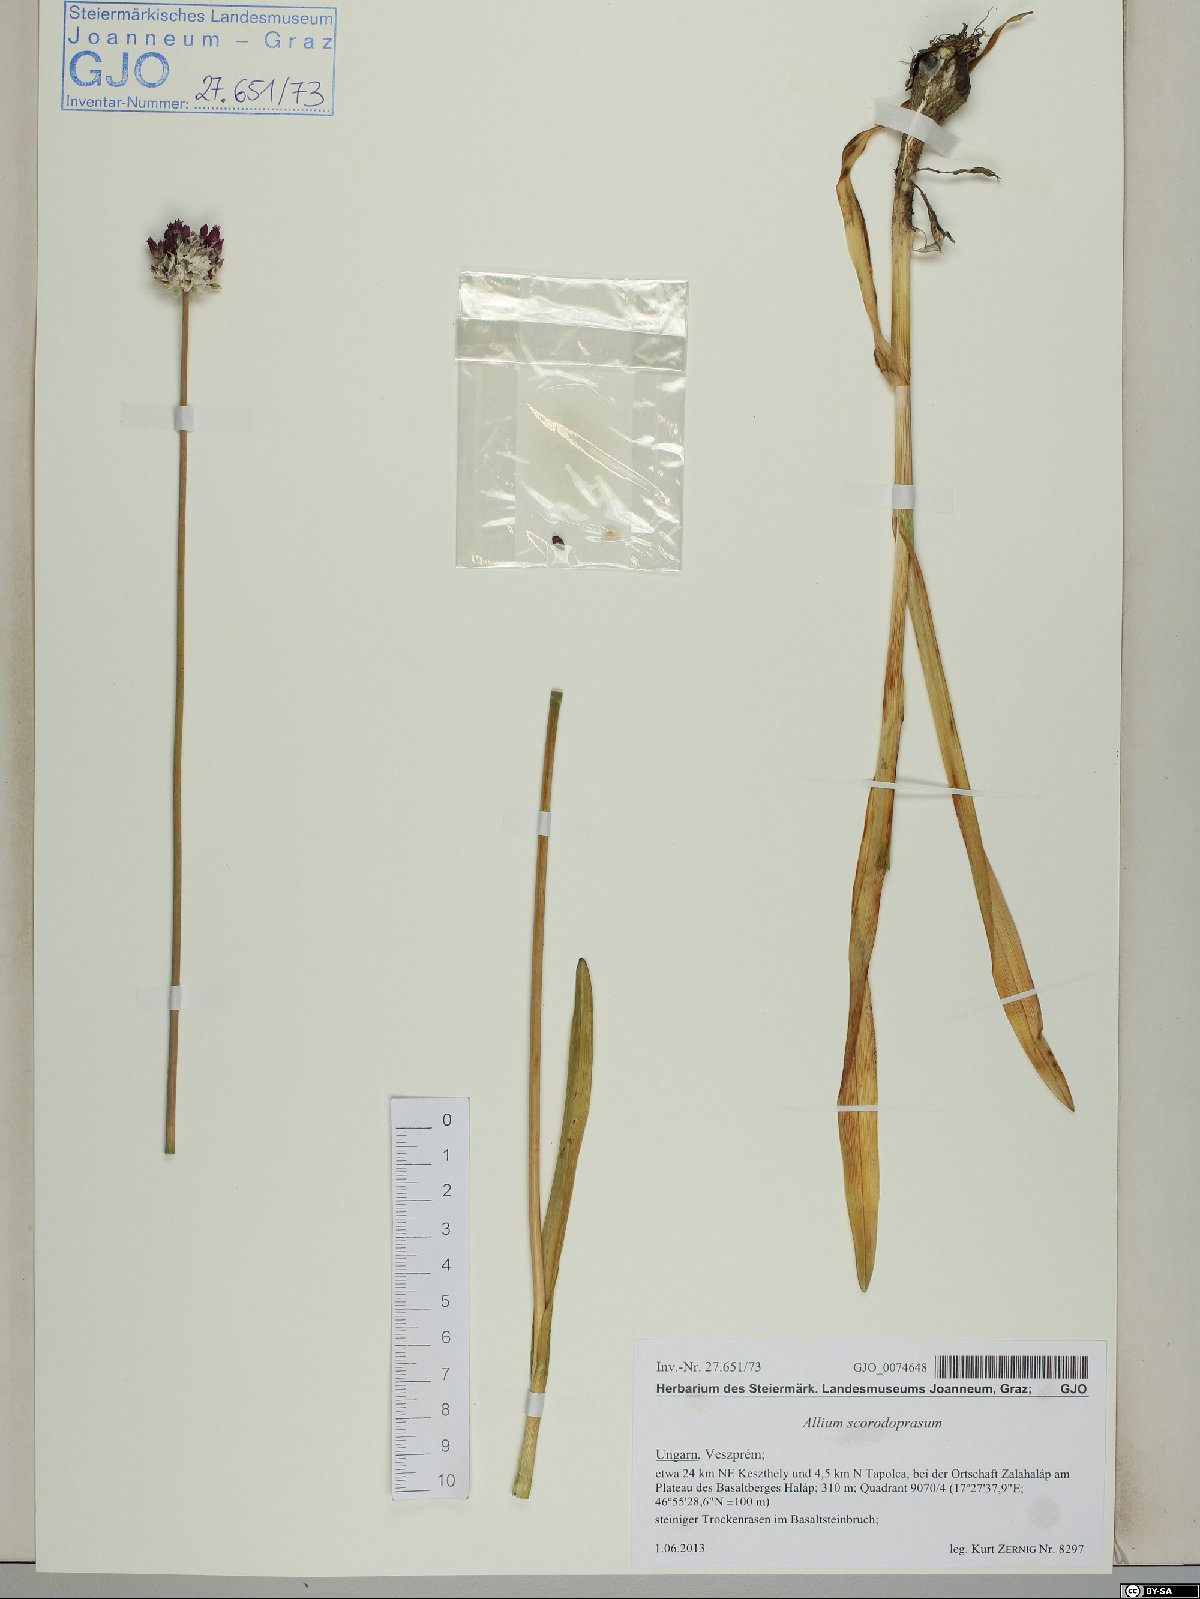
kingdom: Plantae
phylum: Tracheophyta
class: Liliopsida
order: Asparagales
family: Amaryllidaceae
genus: Allium
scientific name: Allium scorodoprasum
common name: Sand leek
